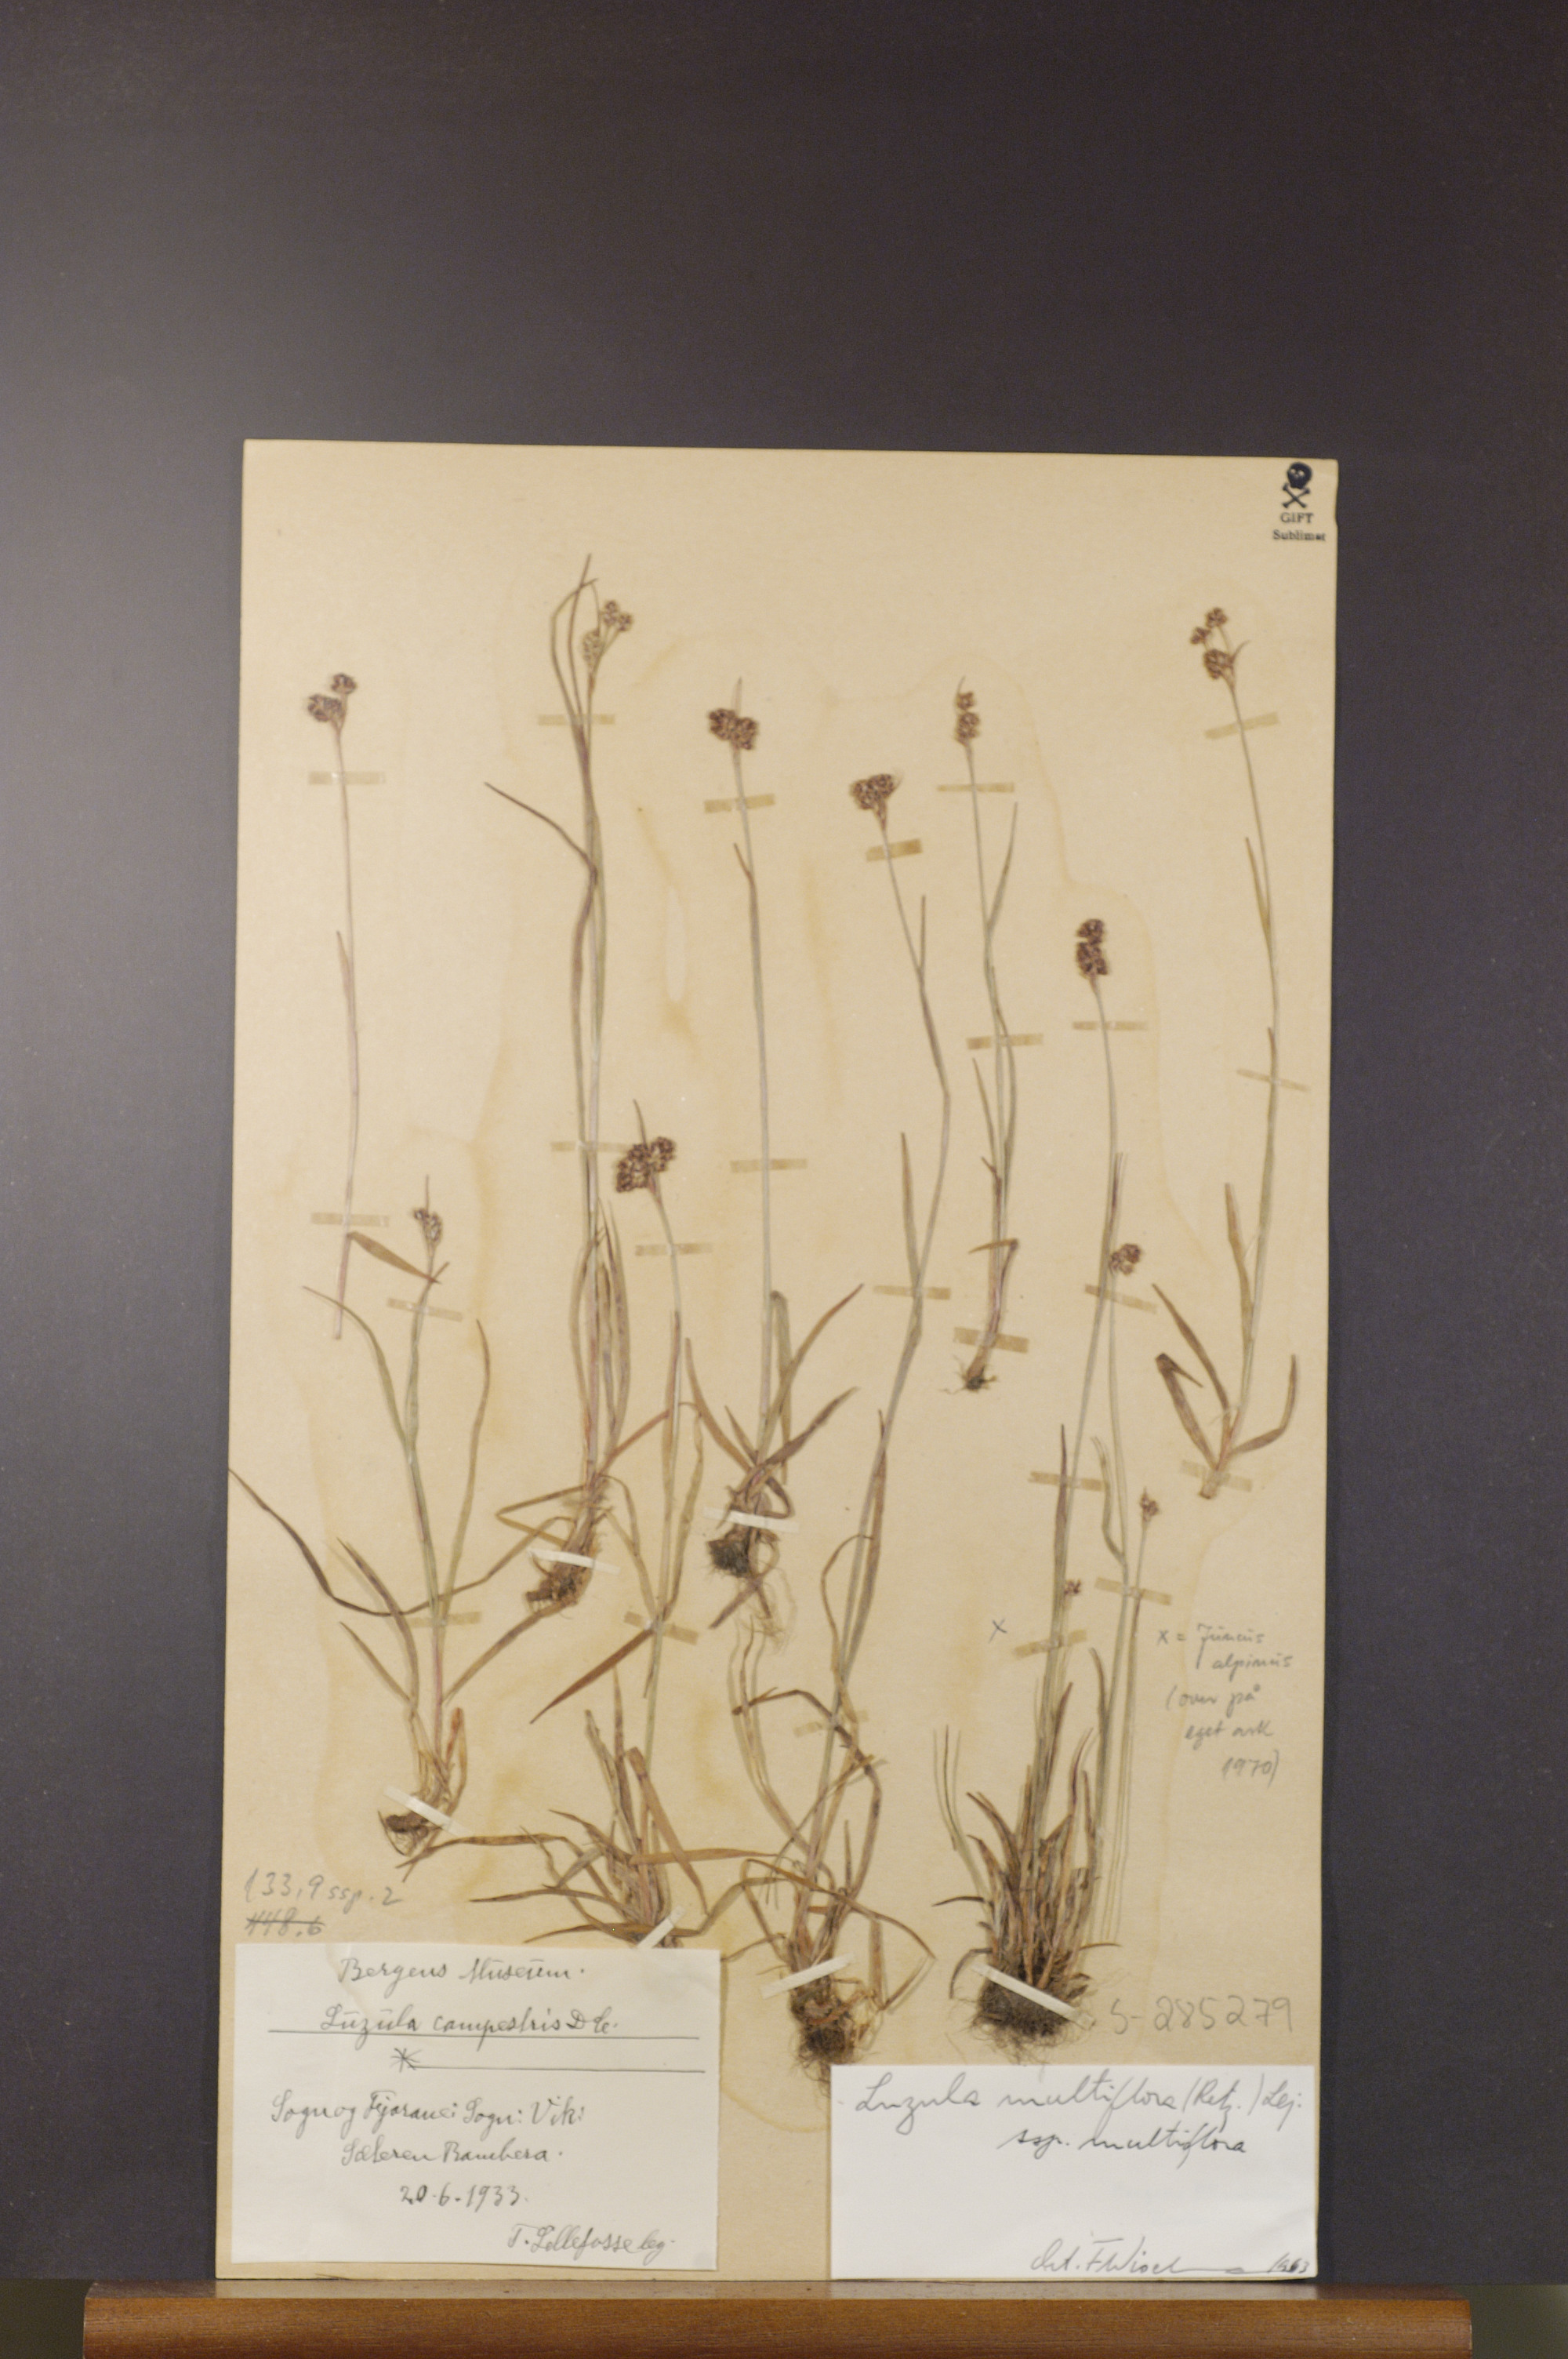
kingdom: Plantae
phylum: Tracheophyta
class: Liliopsida
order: Poales
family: Juncaceae
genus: Luzula
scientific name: Luzula multiflora
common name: Heath wood-rush
